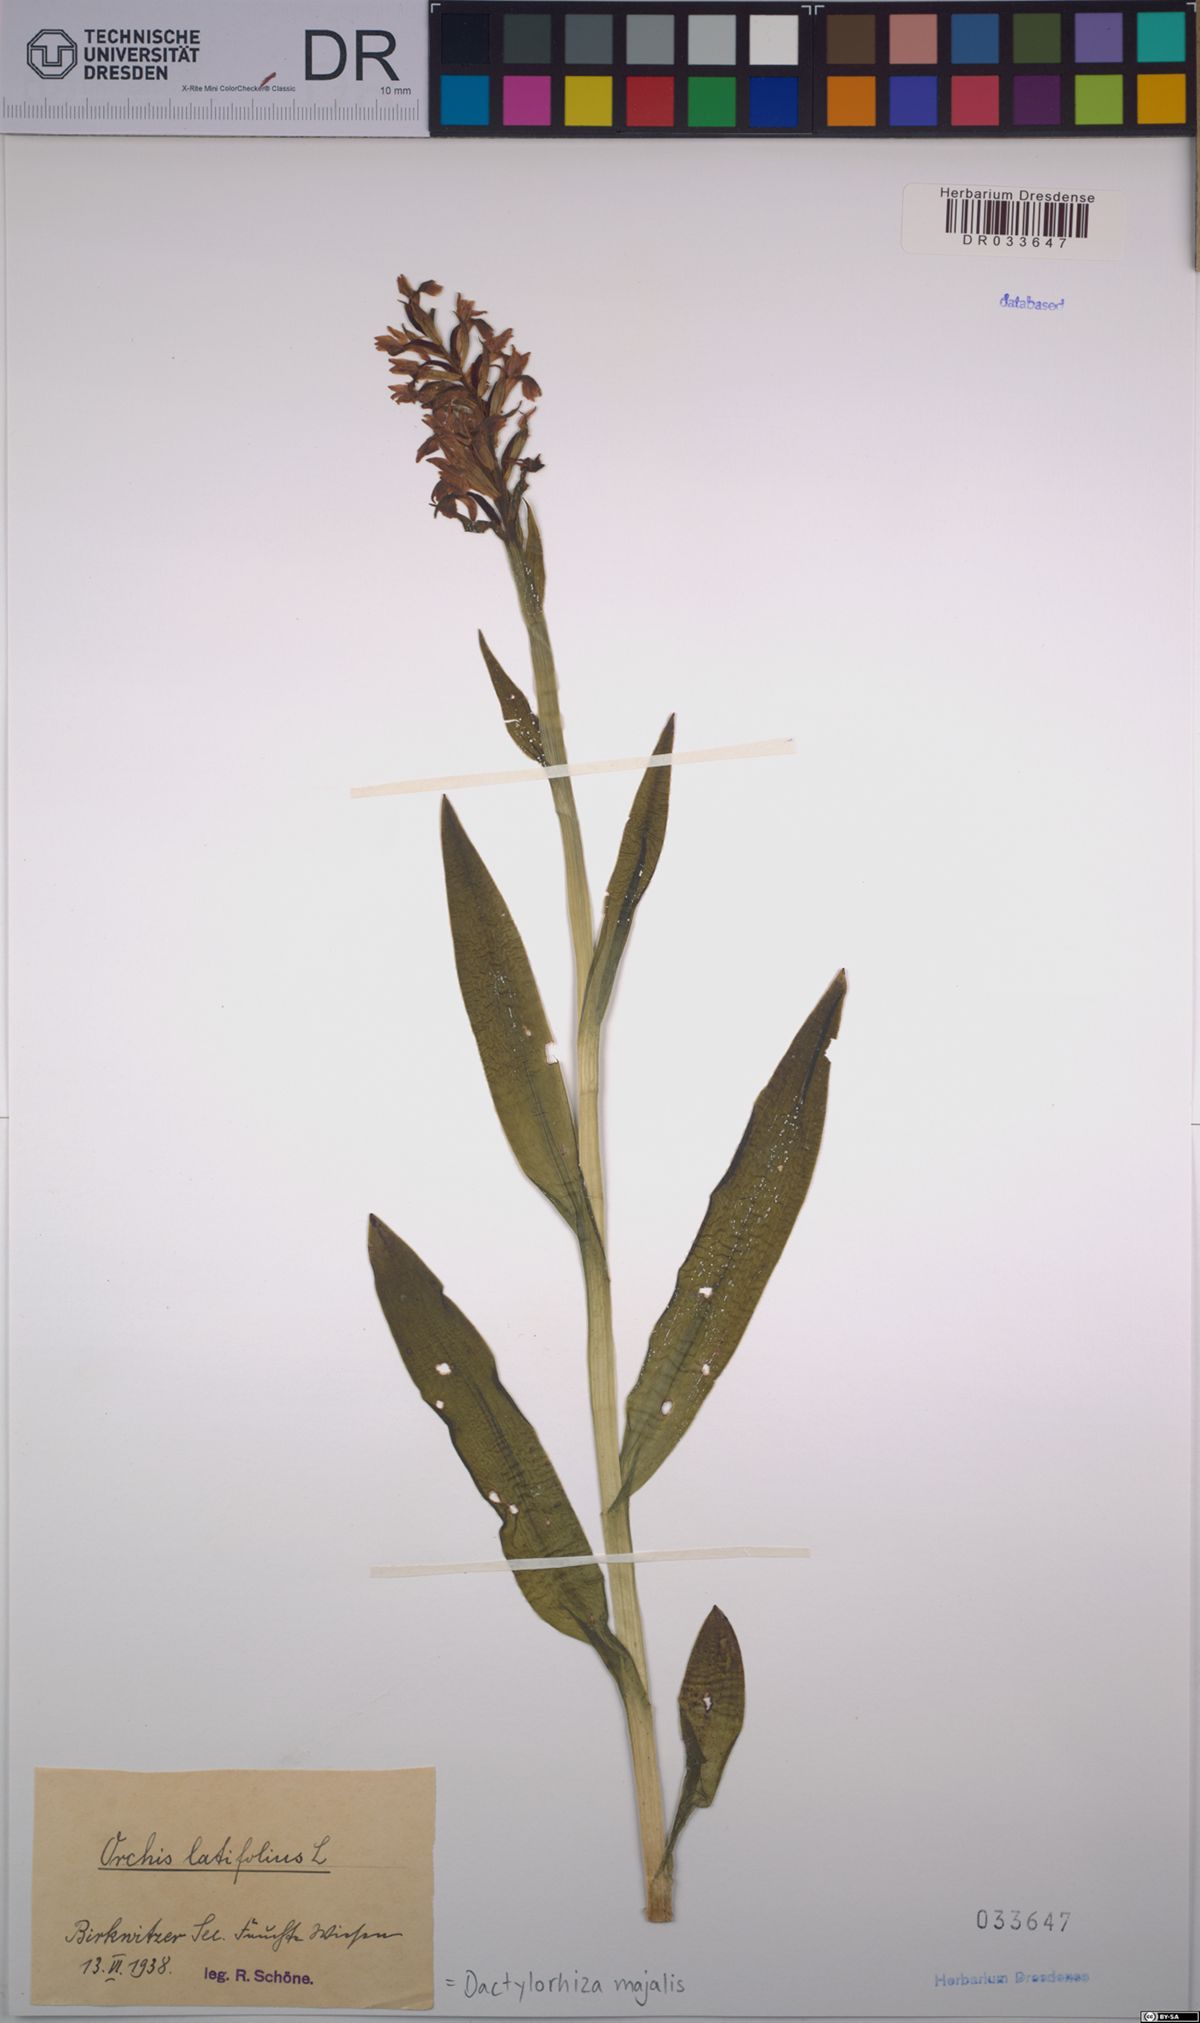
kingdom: Plantae
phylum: Tracheophyta
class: Liliopsida
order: Asparagales
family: Orchidaceae
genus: Dactylorhiza
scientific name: Dactylorhiza majalis
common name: Marsh orchid
